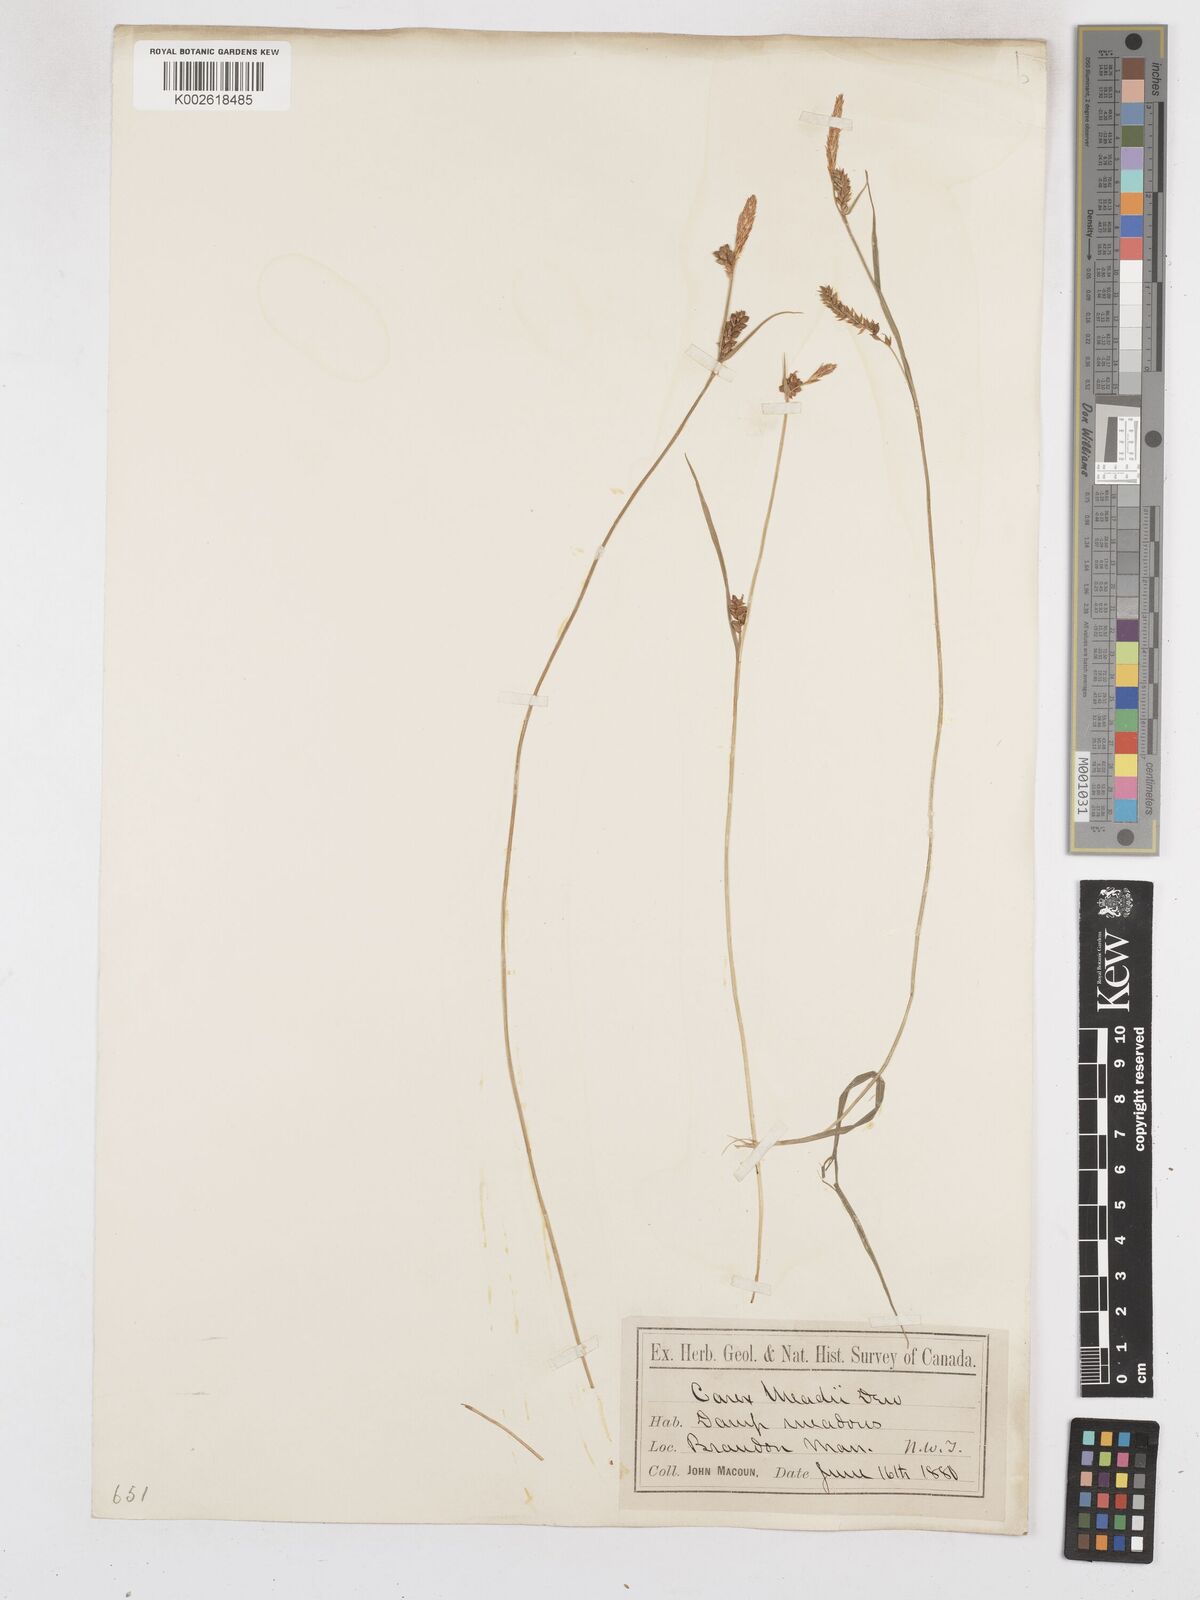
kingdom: Plantae
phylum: Tracheophyta
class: Liliopsida
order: Poales
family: Cyperaceae
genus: Carex
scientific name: Carex meadii
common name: Mead's sedge
